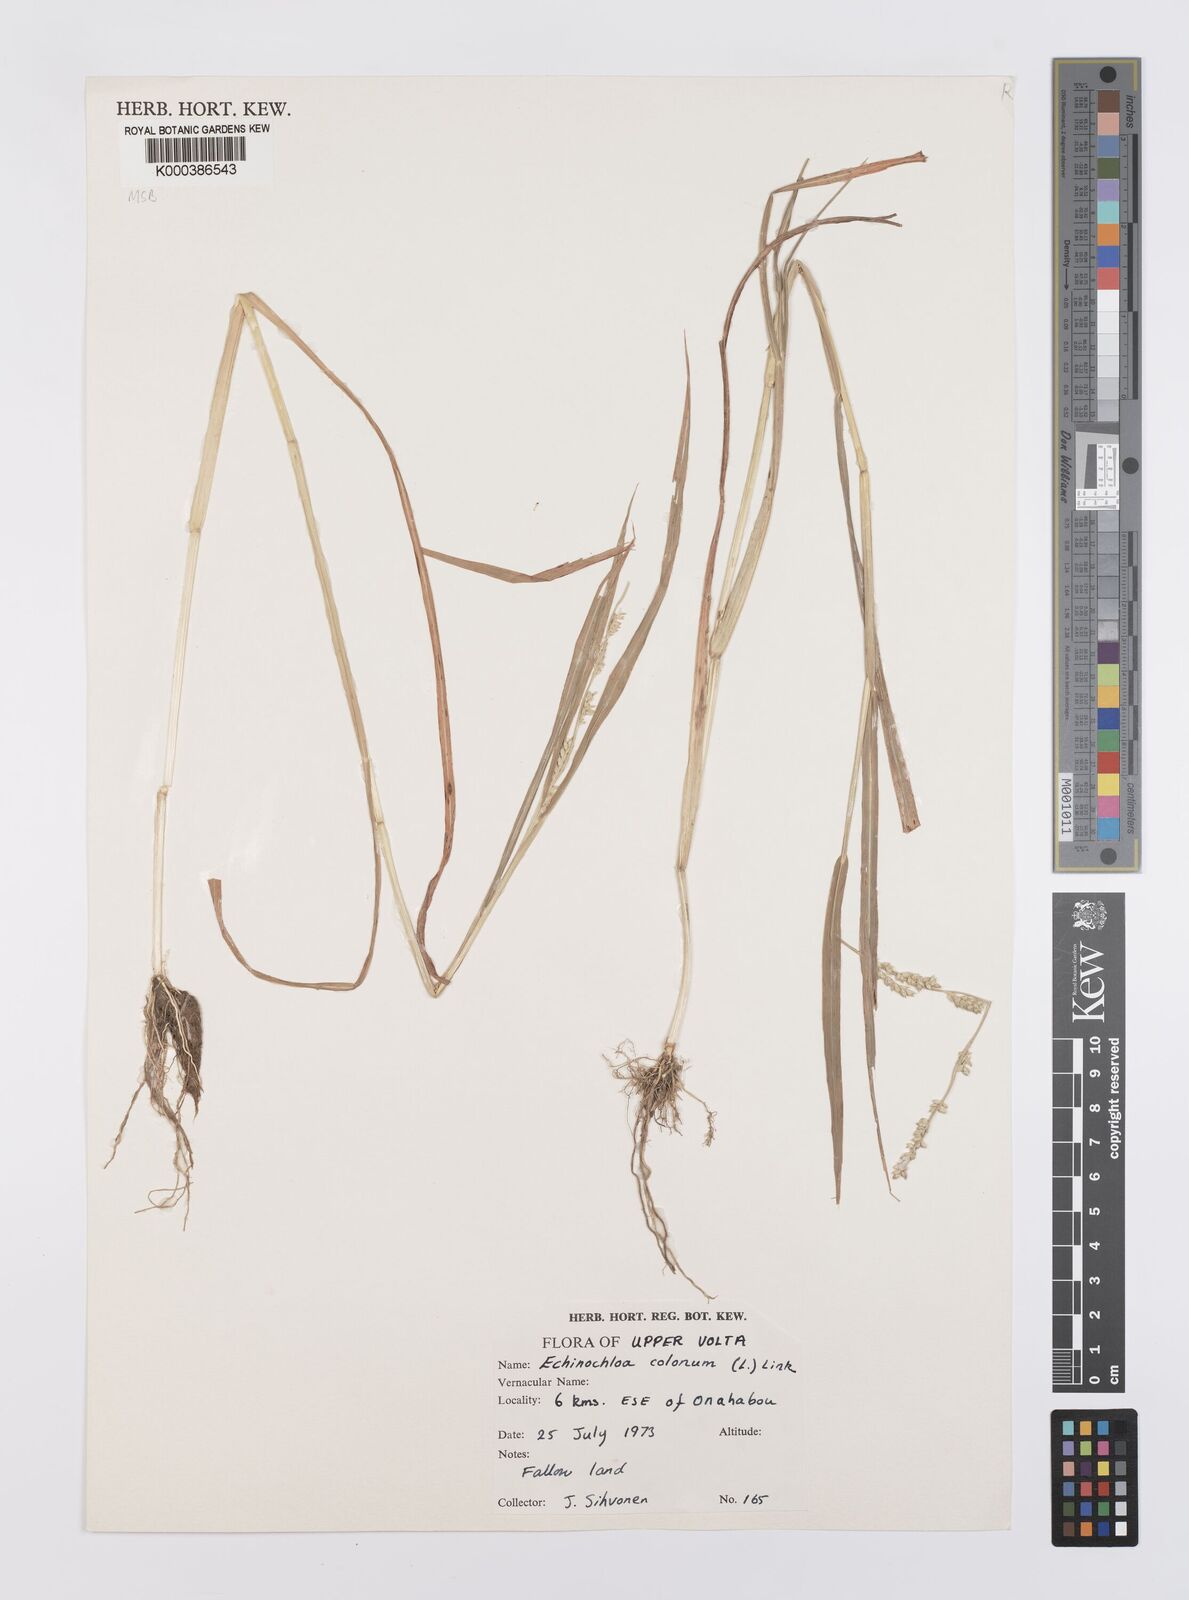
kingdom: Plantae
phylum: Tracheophyta
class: Liliopsida
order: Poales
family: Poaceae
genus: Echinochloa
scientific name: Echinochloa colonum
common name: Jungle rice
